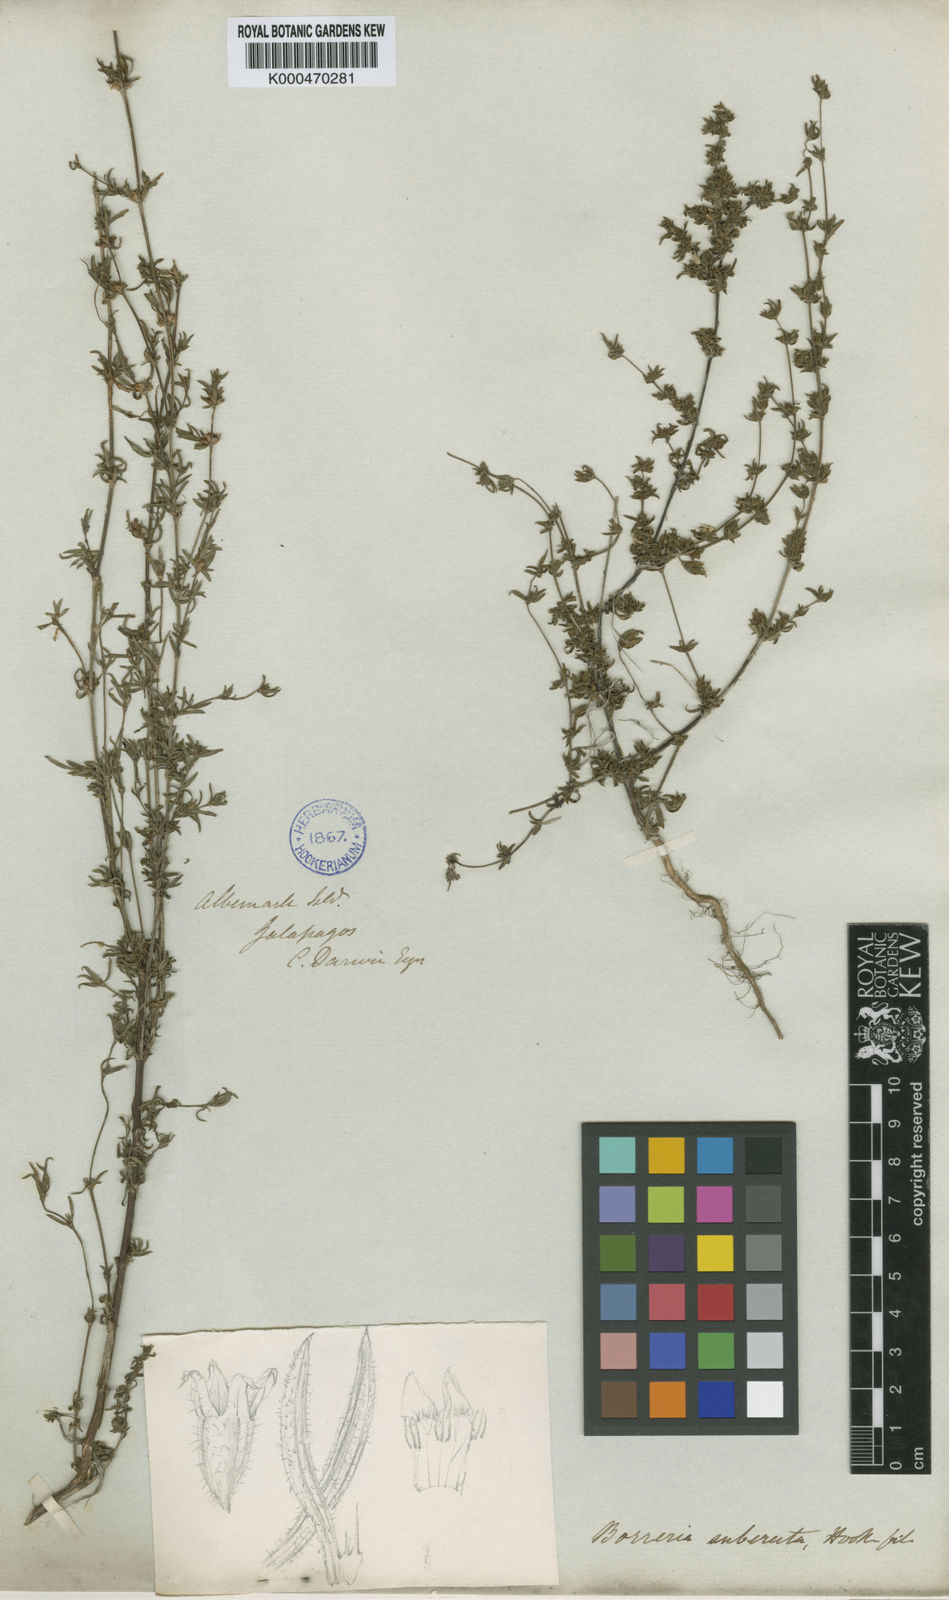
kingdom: Plantae
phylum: Tracheophyta
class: Magnoliopsida
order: Gentianales
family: Rubiaceae
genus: Spermacoce
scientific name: Spermacoce suberecta
